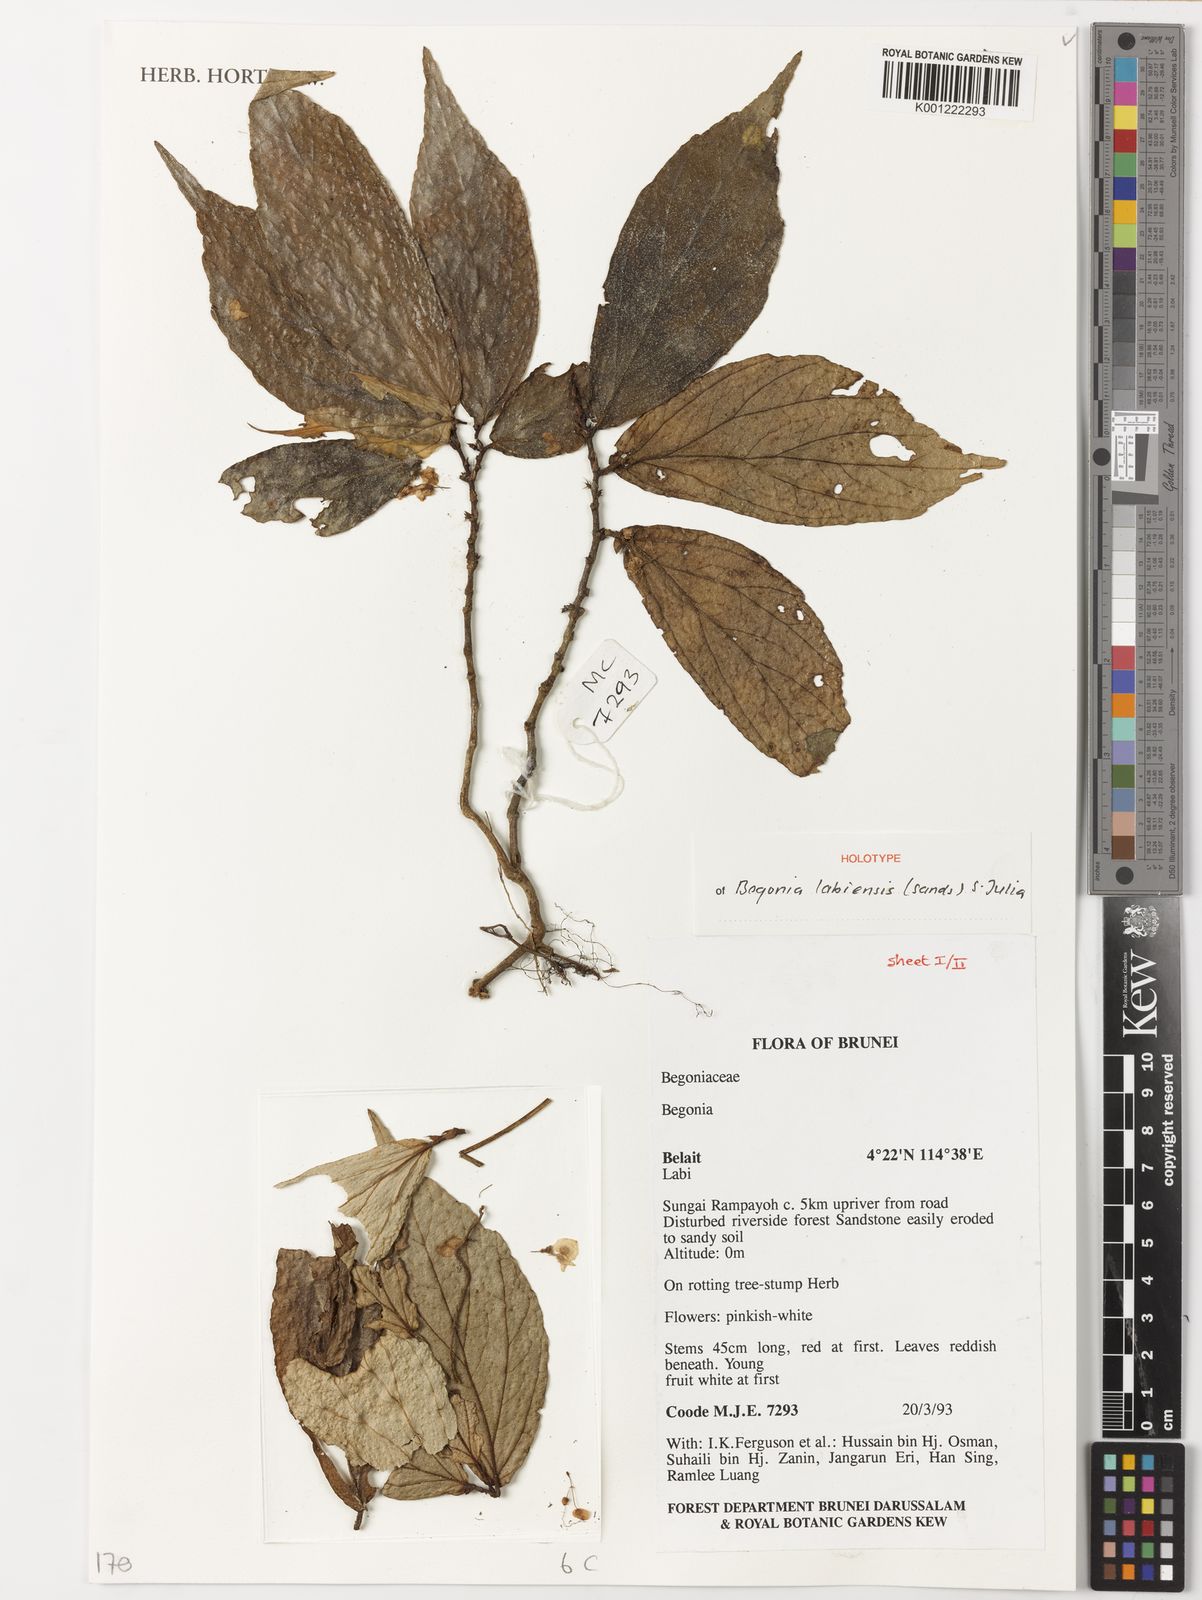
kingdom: Plantae
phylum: Tracheophyta
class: Magnoliopsida
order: Cucurbitales
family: Begoniaceae
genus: Begonia
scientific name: Begonia labiensis
